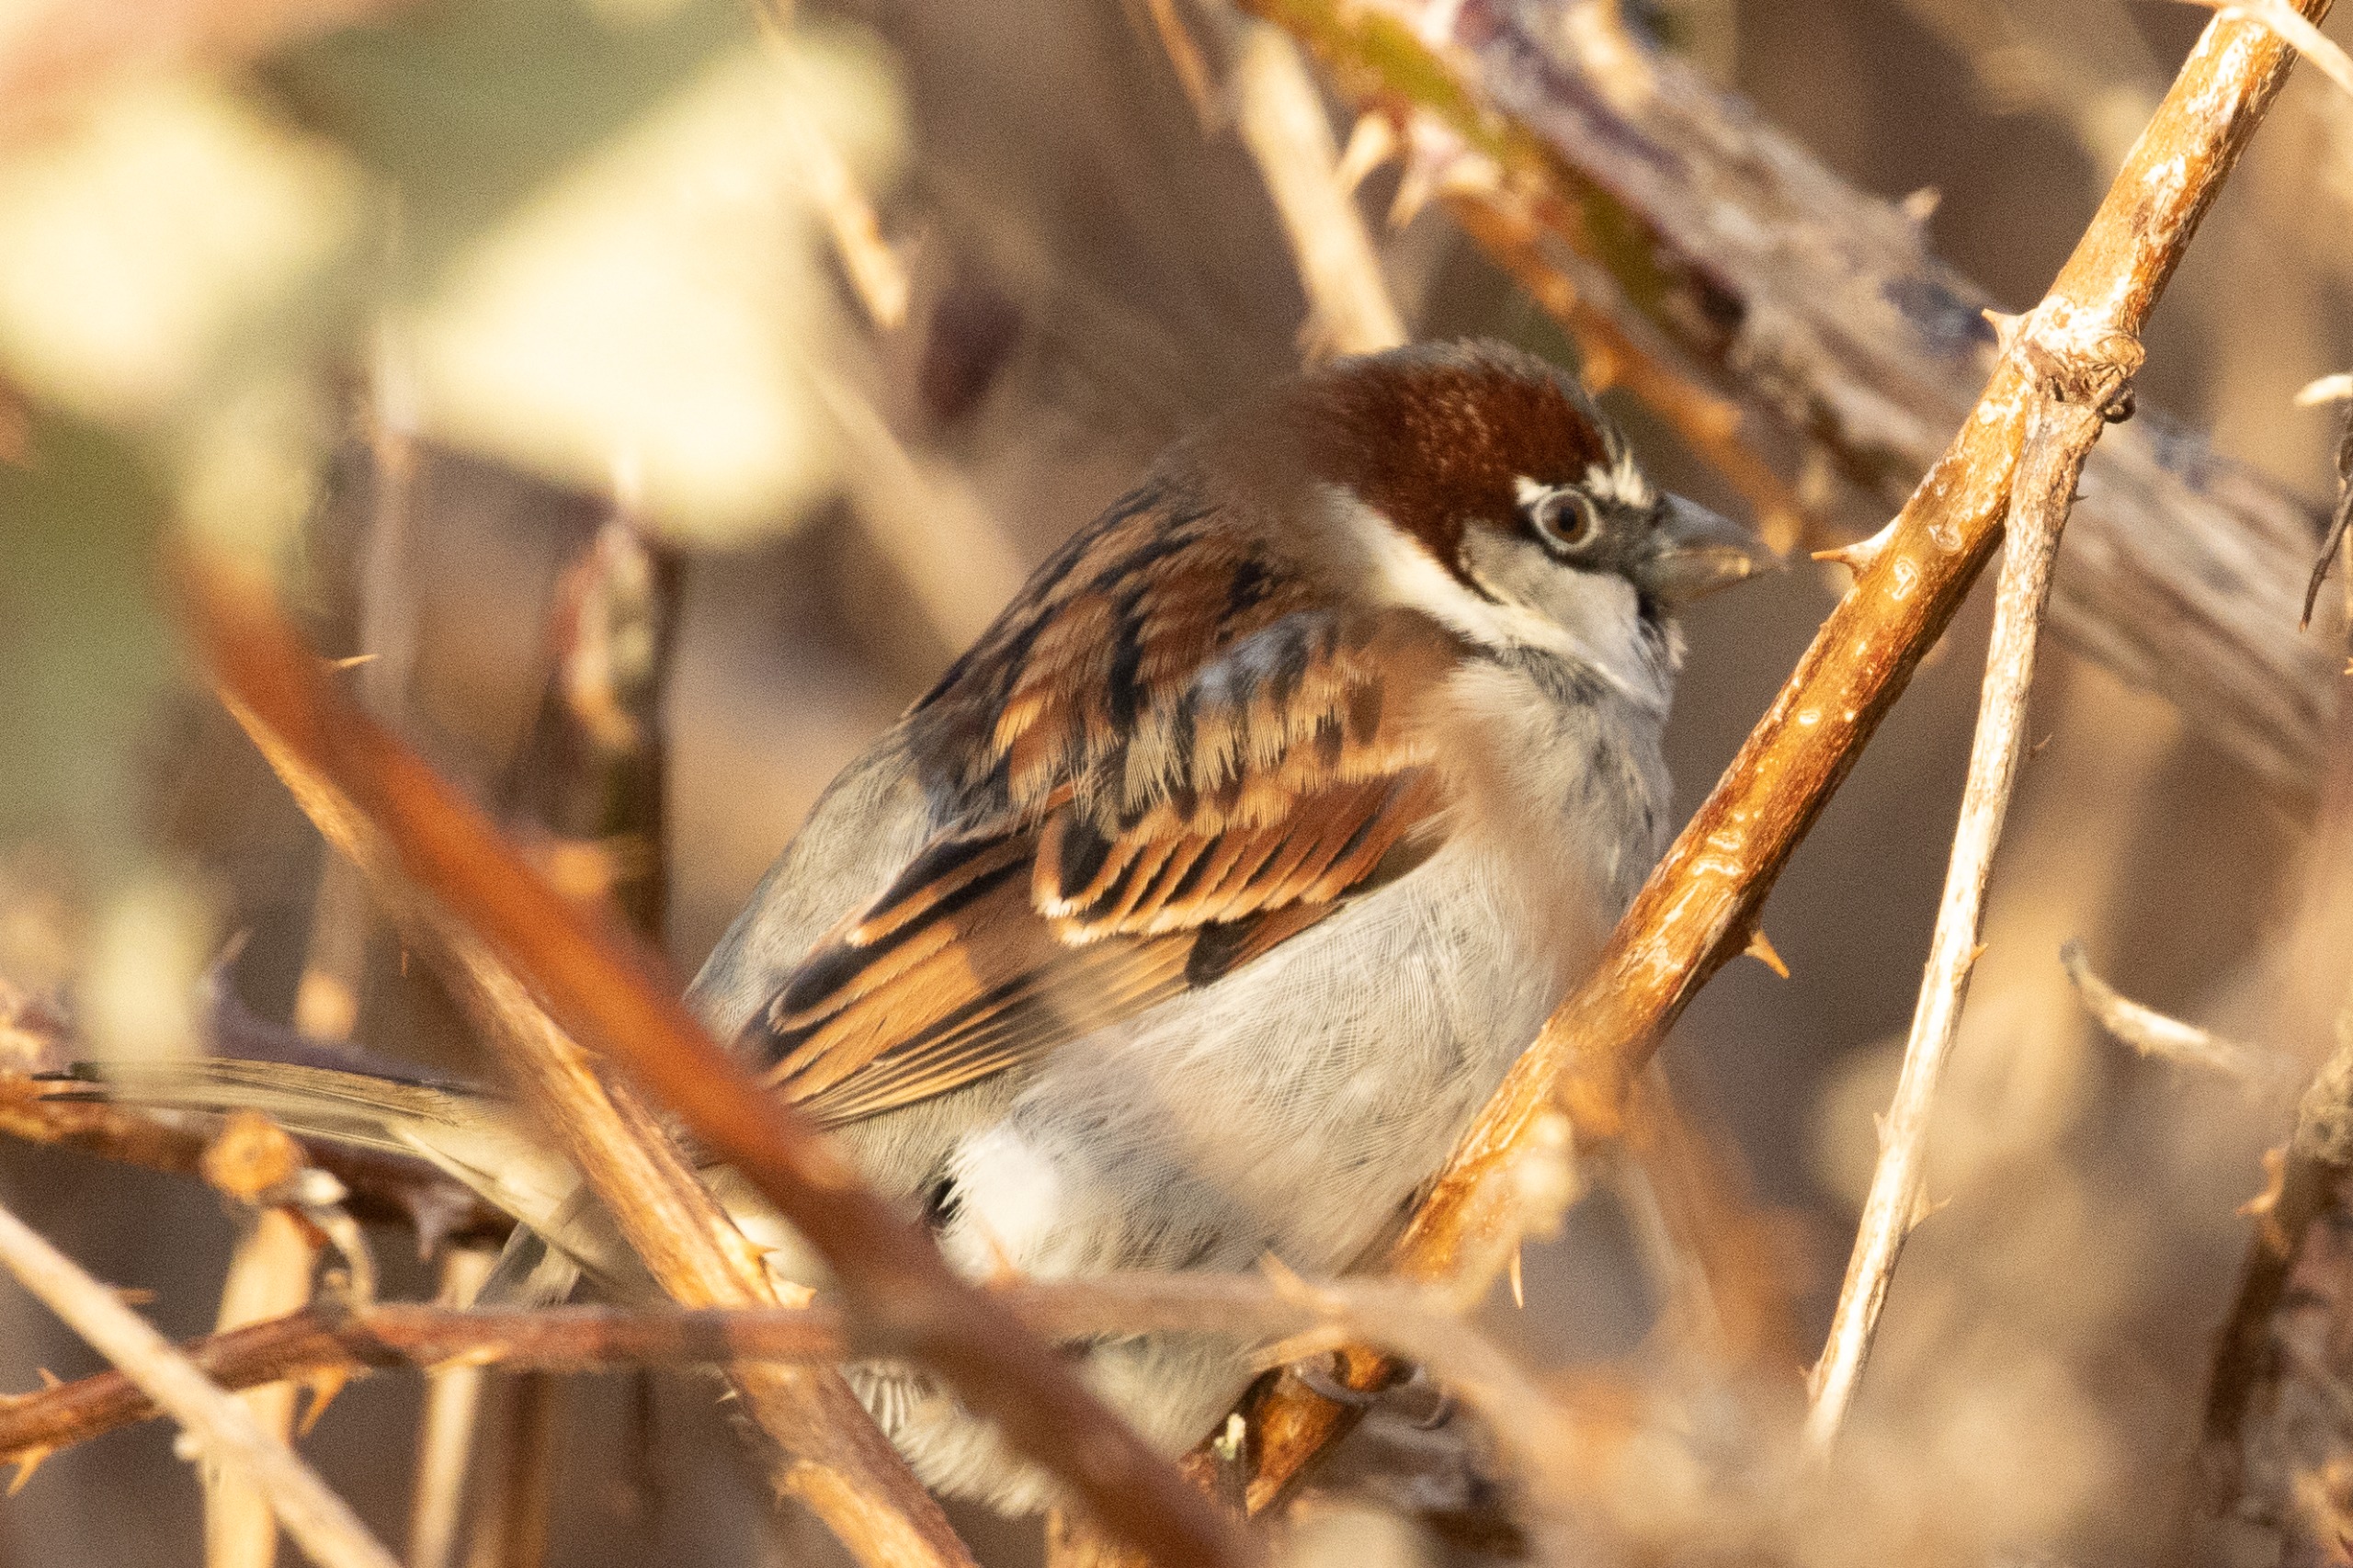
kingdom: Animalia
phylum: Chordata
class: Aves
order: Passeriformes
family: Passeridae
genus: Passer
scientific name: Passer domesticus
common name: Gråspurv
